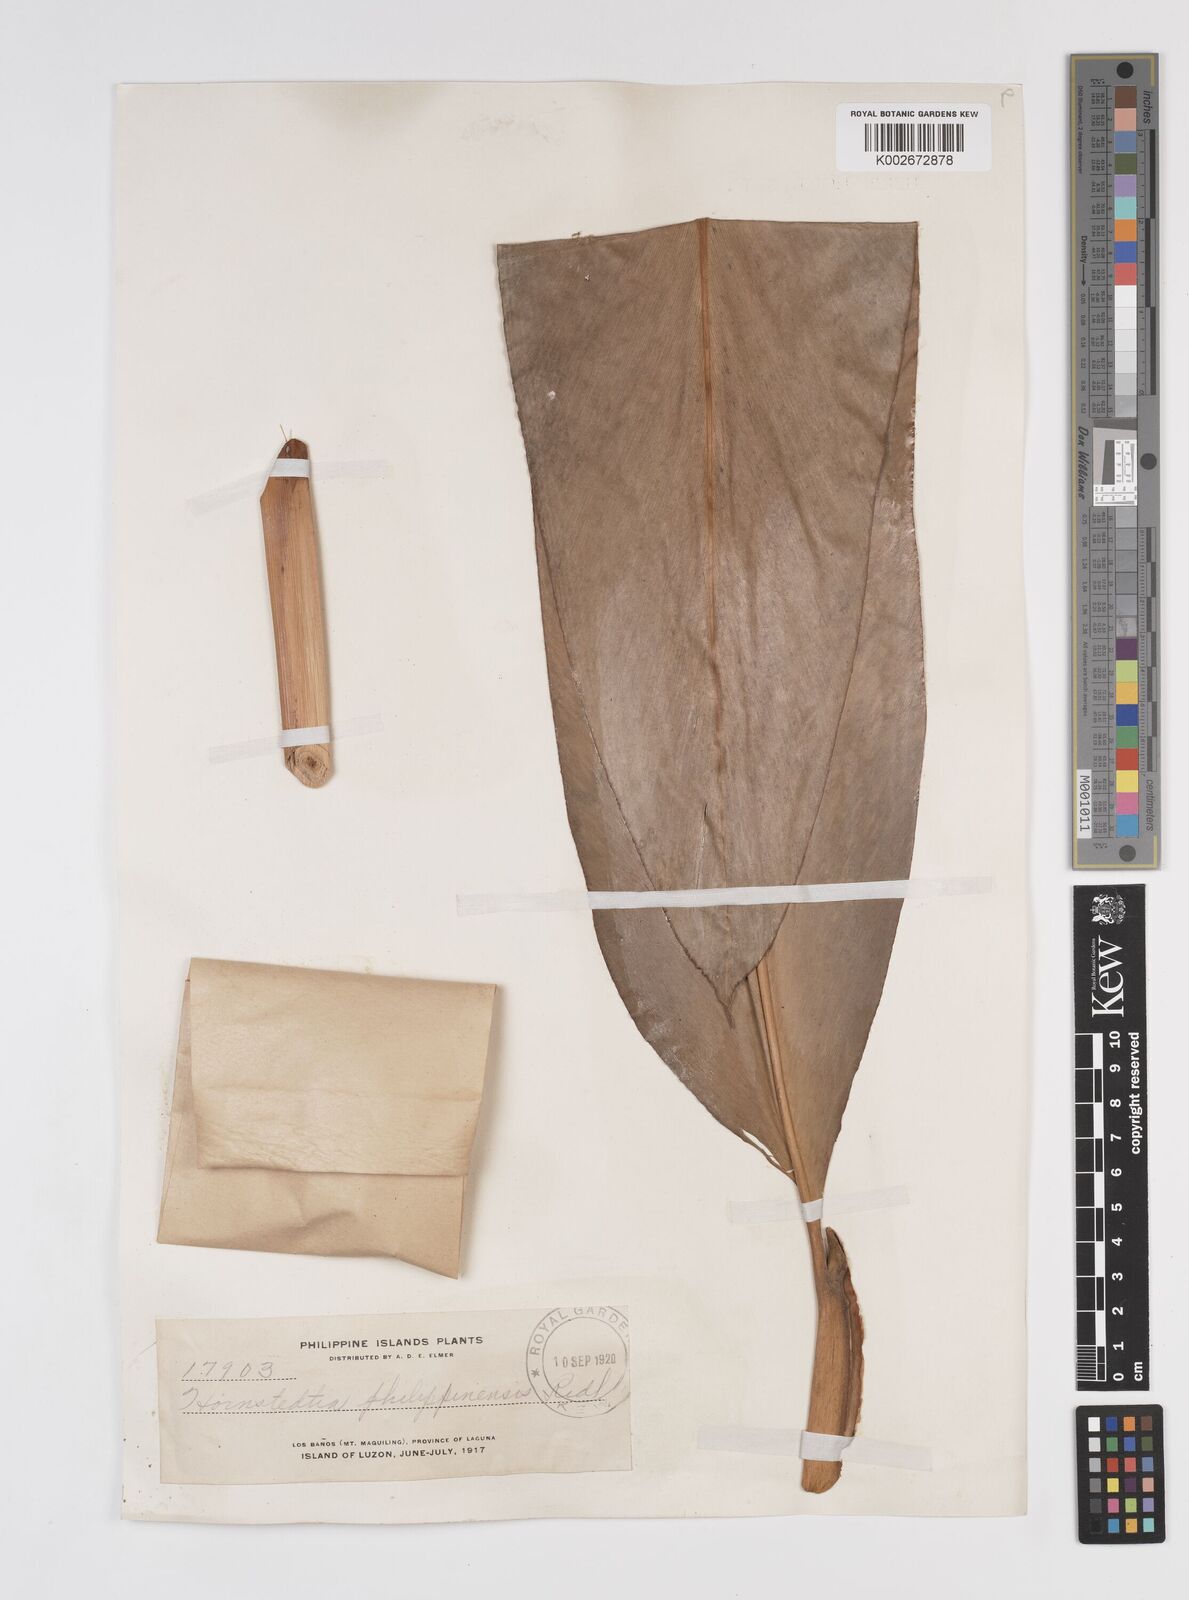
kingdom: Plantae
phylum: Tracheophyta
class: Liliopsida
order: Zingiberales
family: Zingiberaceae
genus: Etlingera
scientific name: Etlingera philippinensis
